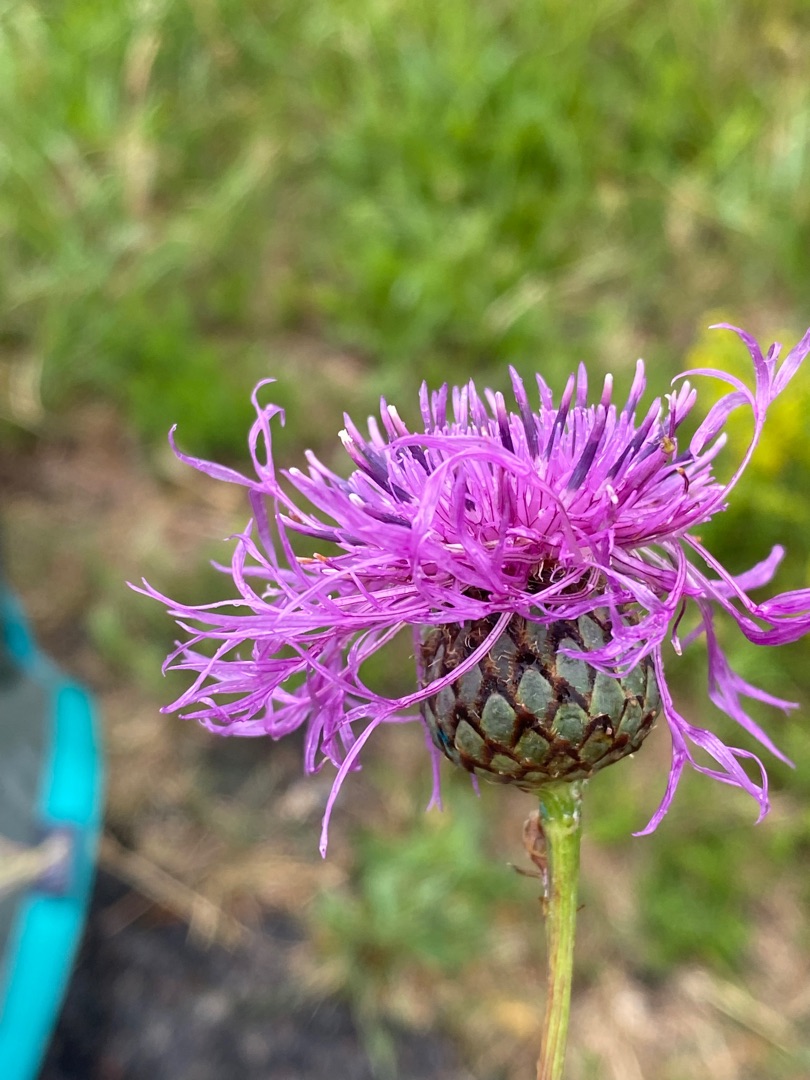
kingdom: Plantae
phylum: Tracheophyta
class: Magnoliopsida
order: Asterales
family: Asteraceae
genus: Centaurea
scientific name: Centaurea scabiosa
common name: Stor knopurt
